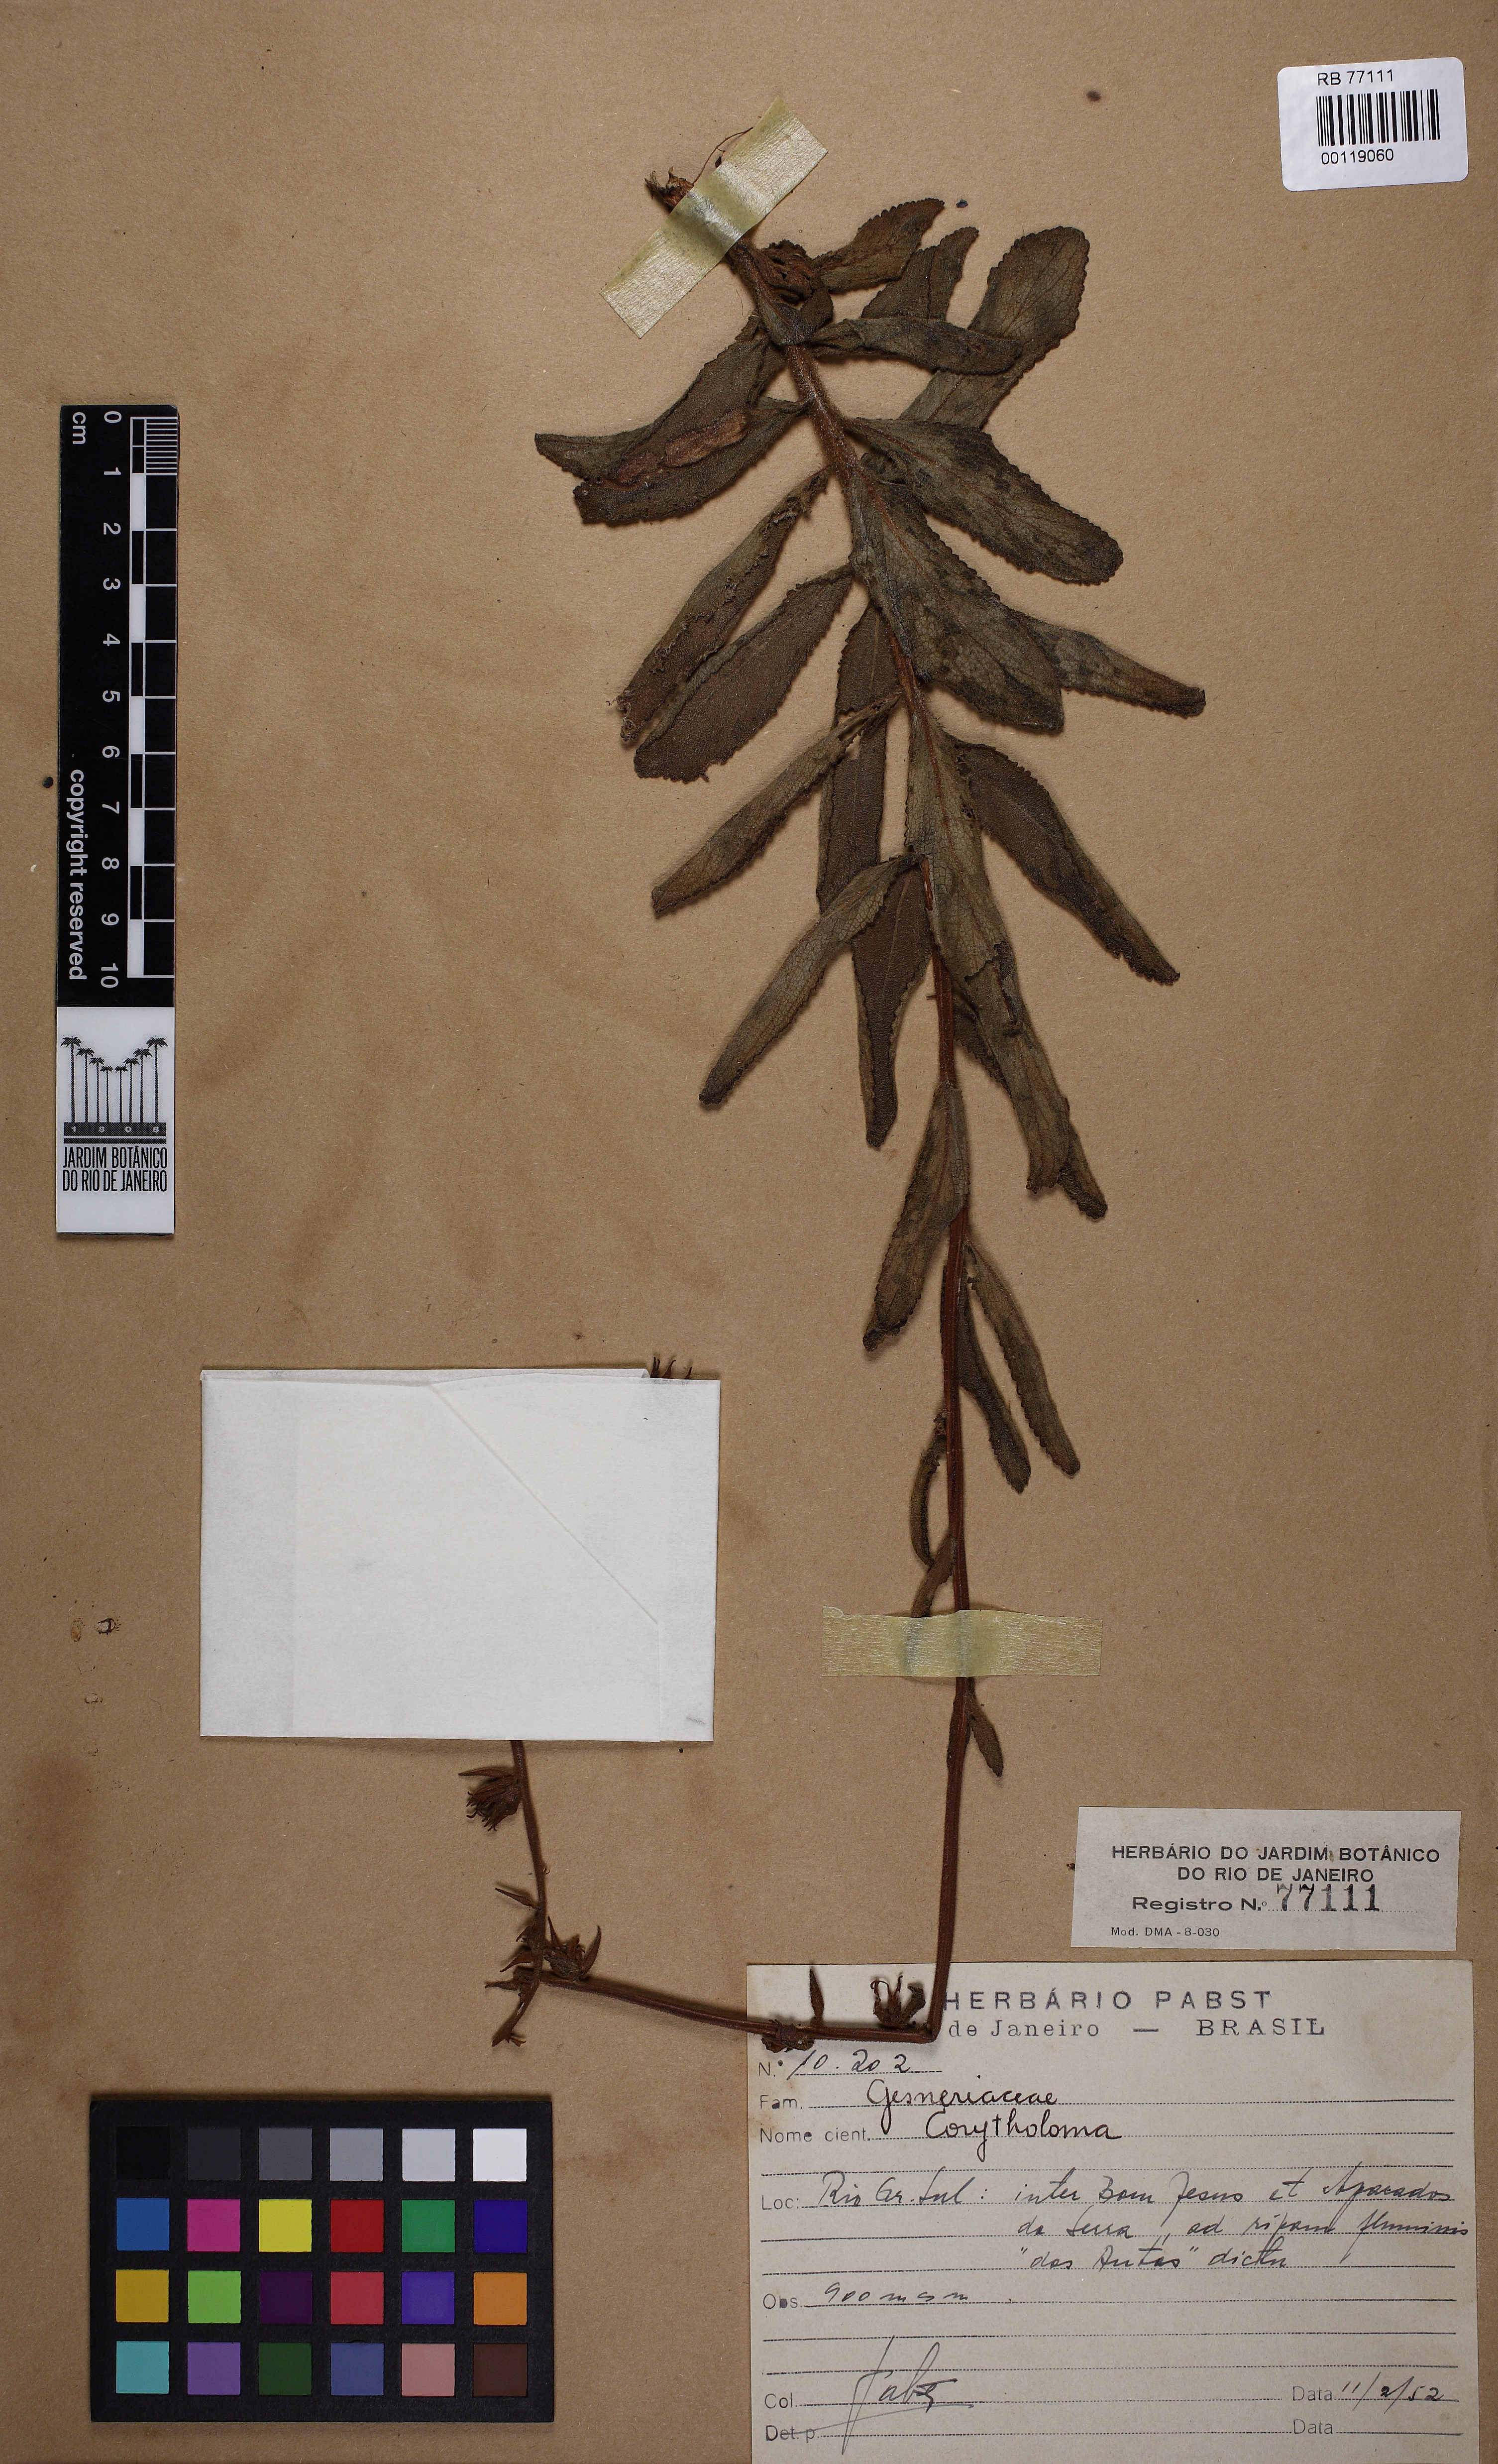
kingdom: Plantae
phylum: Tracheophyta
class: Magnoliopsida
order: Lamiales
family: Gesneriaceae
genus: Sinningia
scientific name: Sinningia allagophylla
